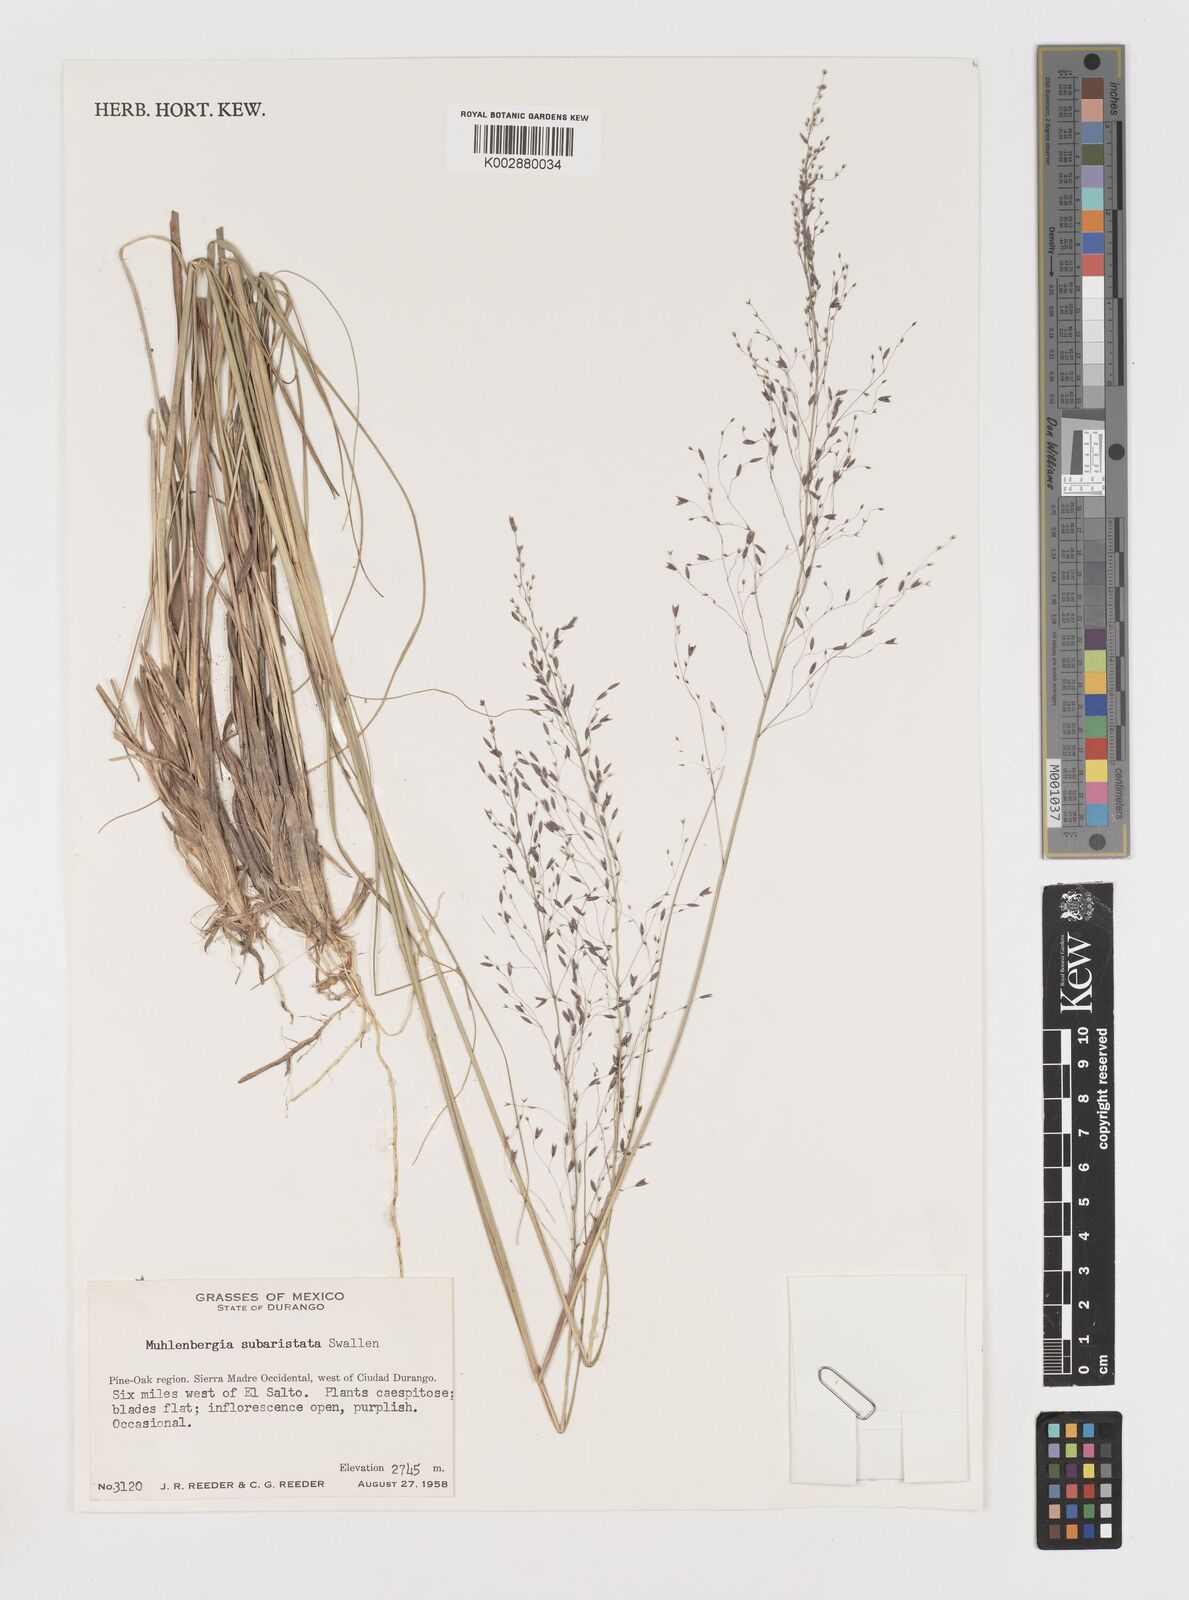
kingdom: Plantae
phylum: Tracheophyta
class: Liliopsida
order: Poales
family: Poaceae
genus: Muhlenbergia
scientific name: Muhlenbergia subaristata
